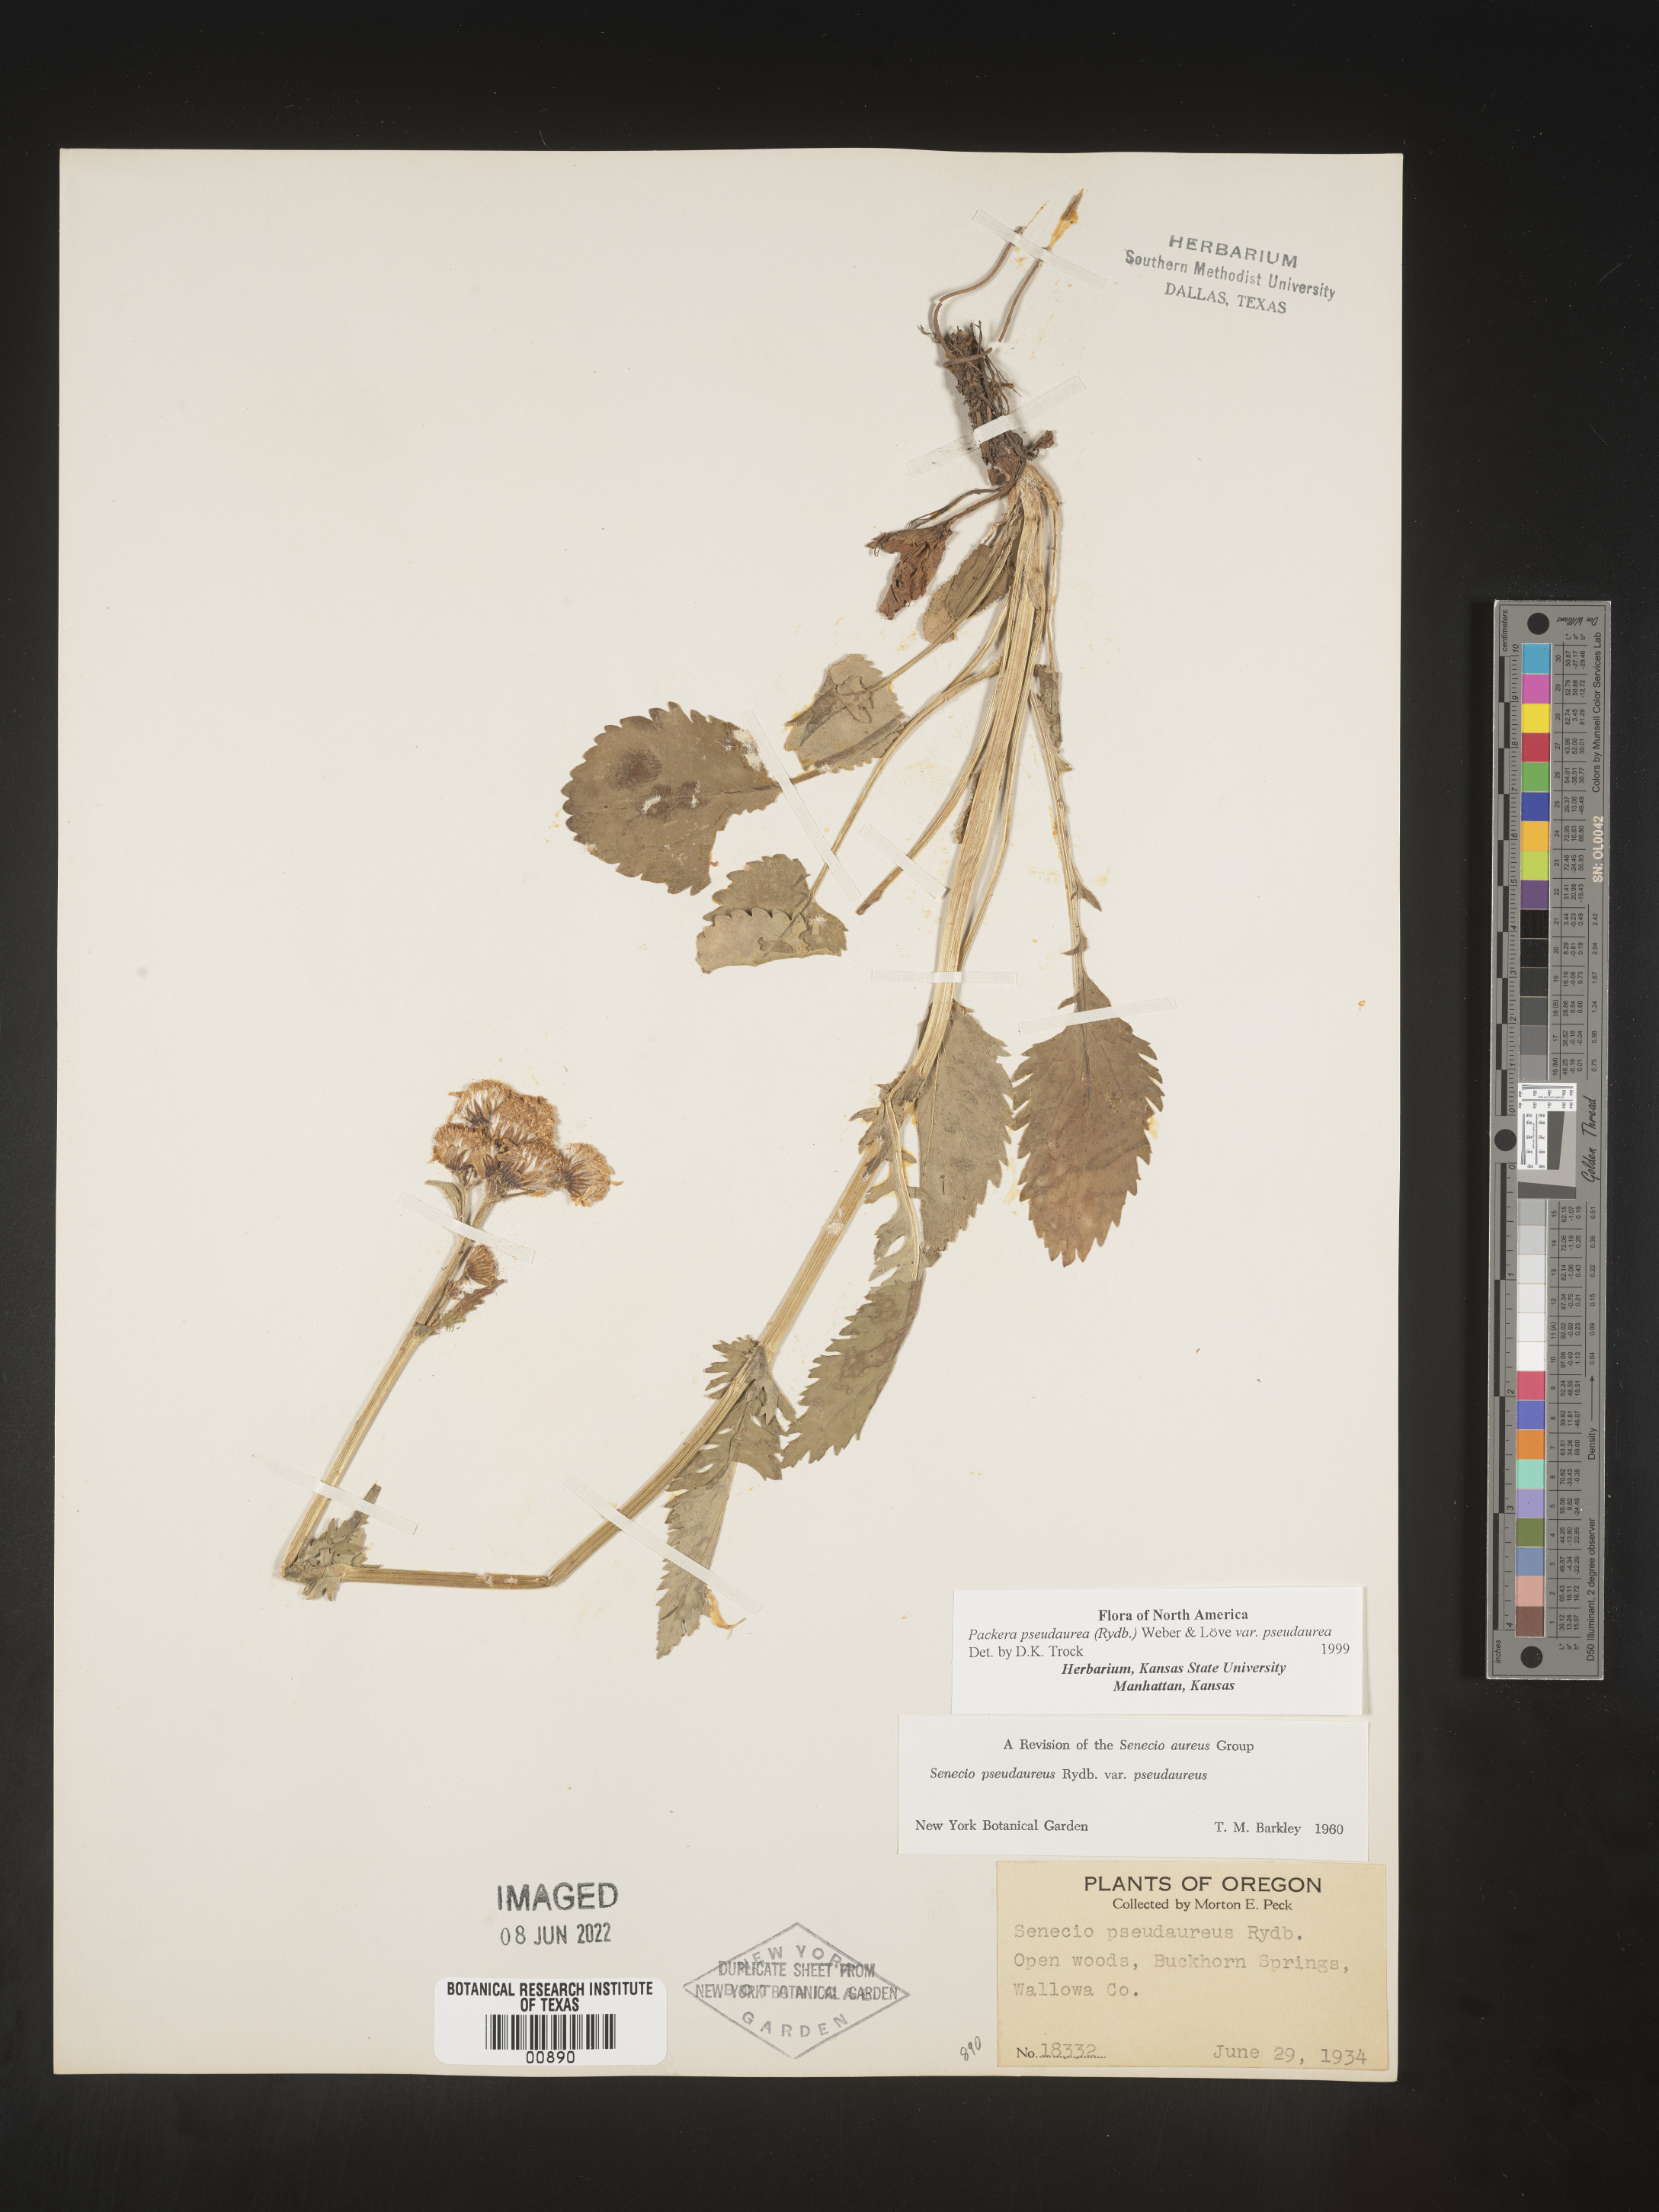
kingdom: Plantae
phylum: Tracheophyta
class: Magnoliopsida
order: Asterales
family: Asteraceae
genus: Packera
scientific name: Packera pseudaurea
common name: False-gold groundsel
